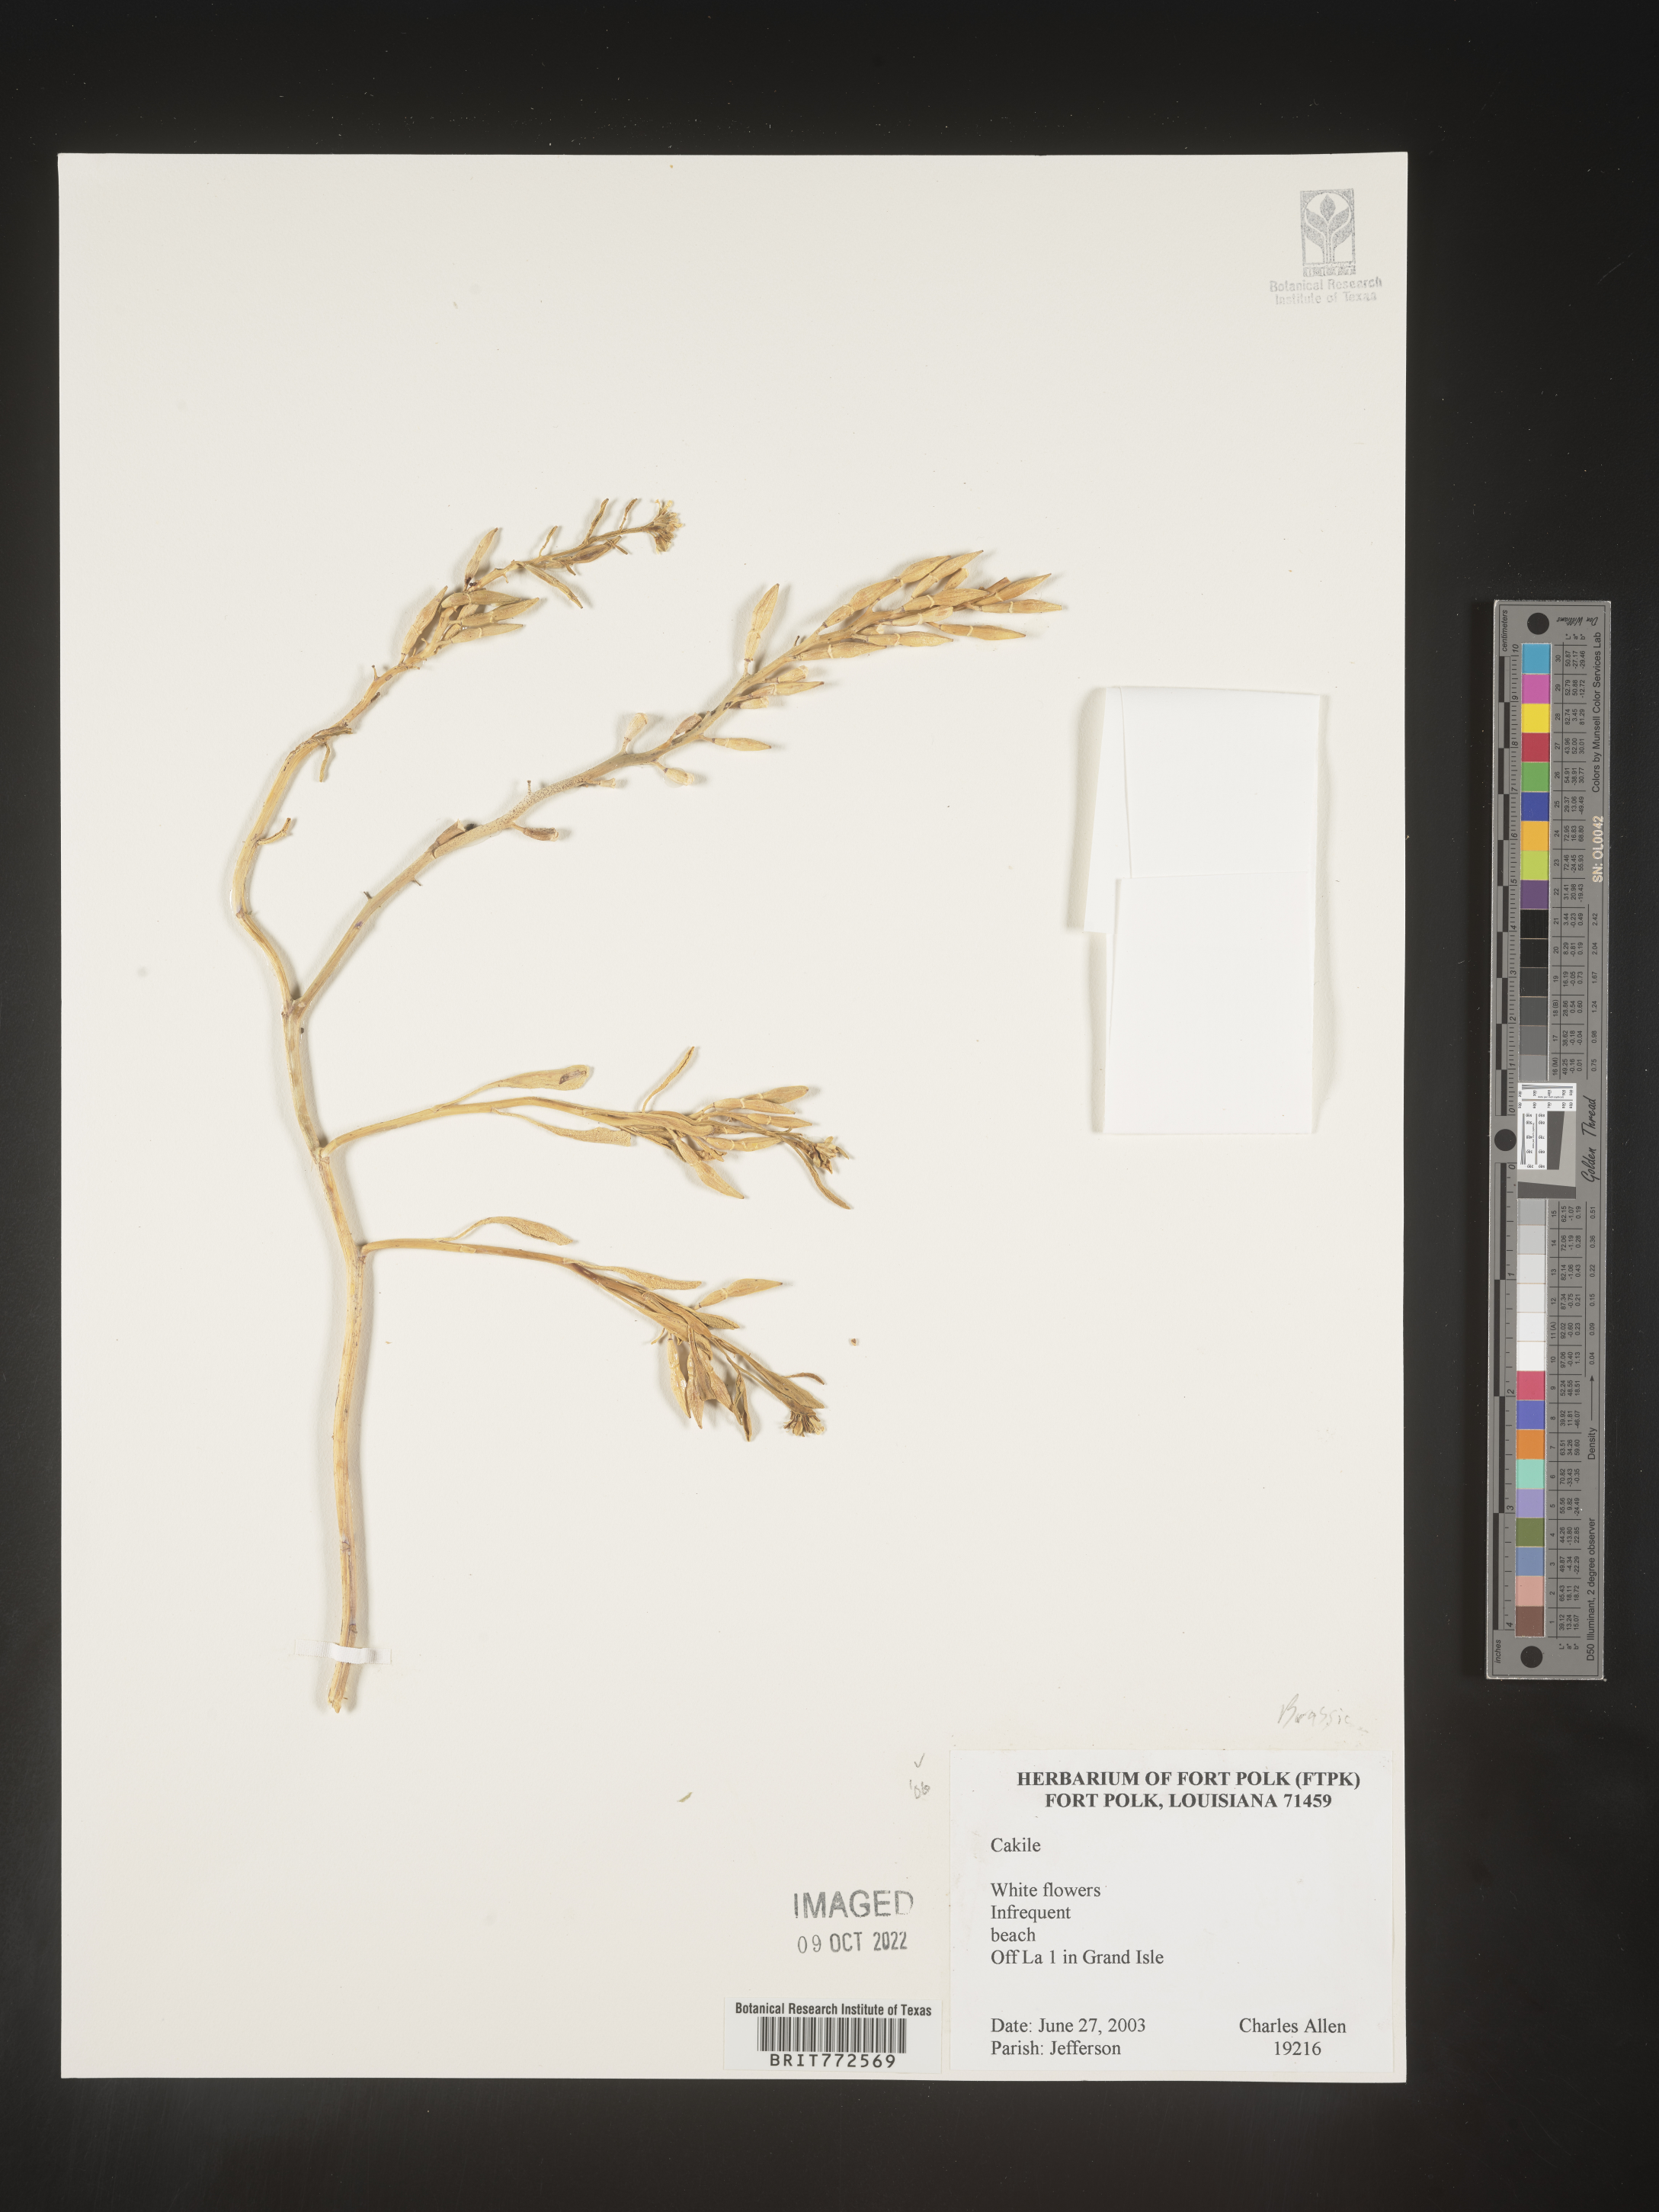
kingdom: Plantae
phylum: Tracheophyta
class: Magnoliopsida
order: Brassicales
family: Brassicaceae
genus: Cakile
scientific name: Cakile
